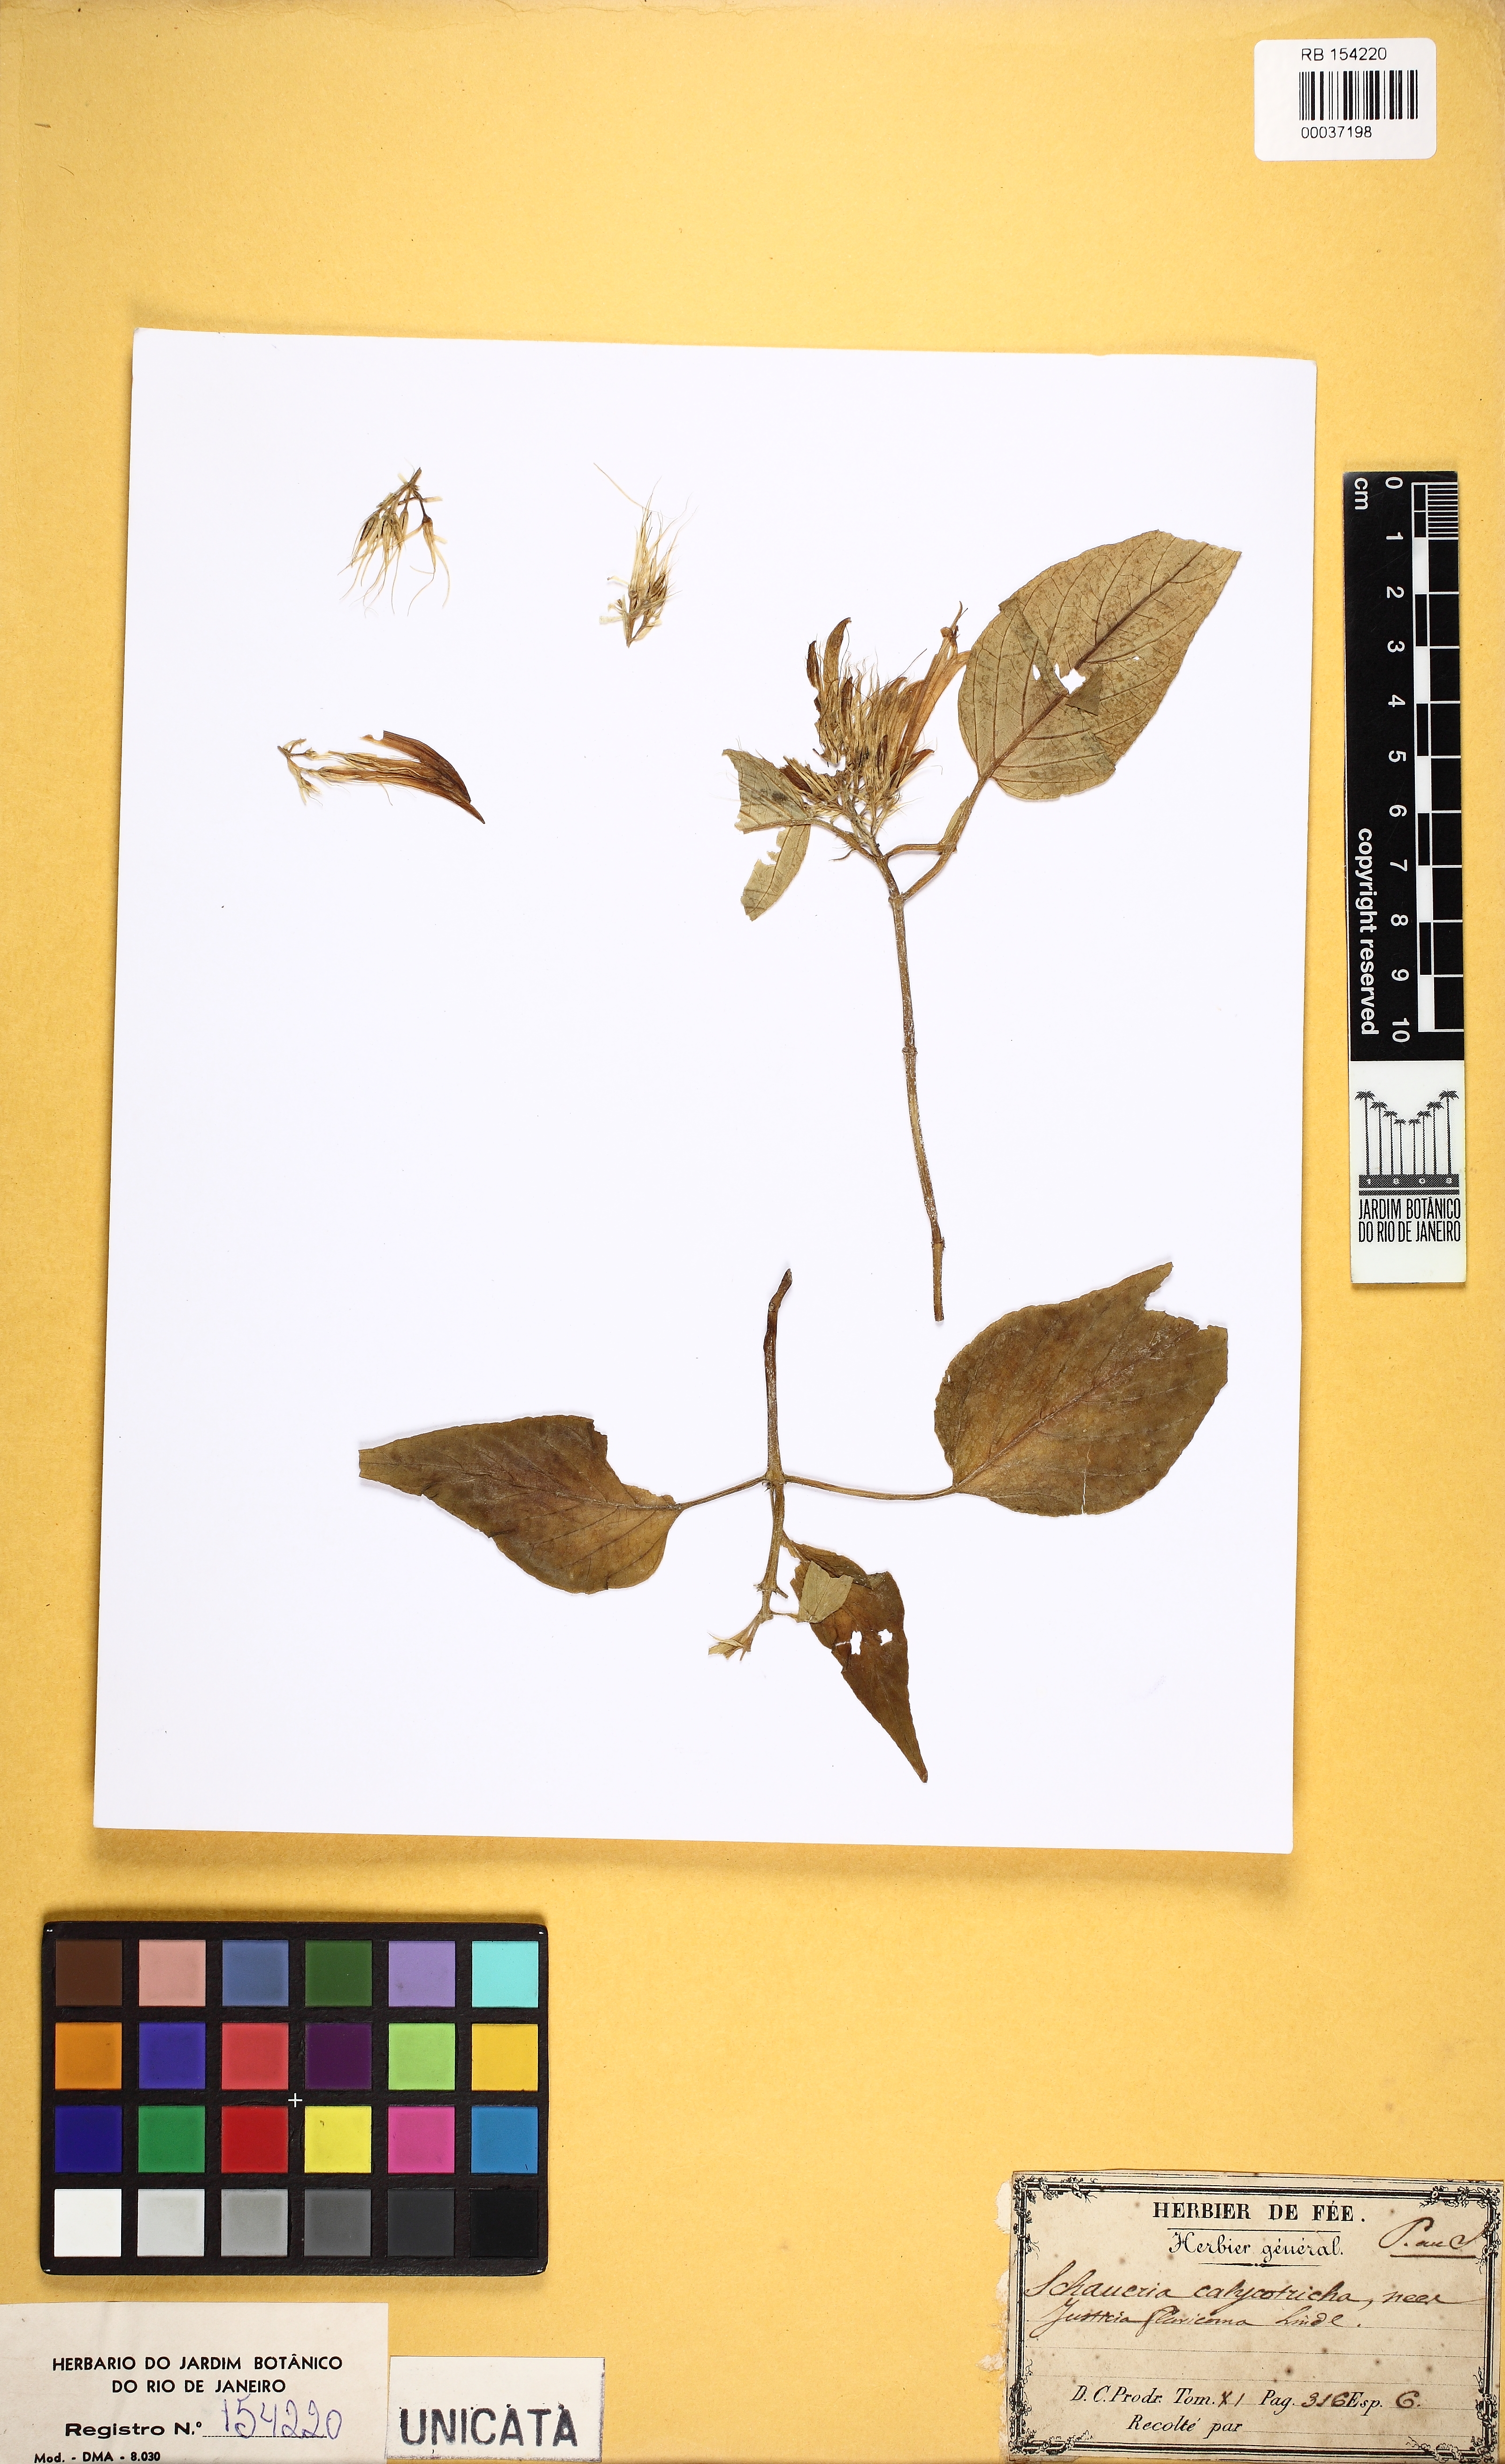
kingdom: Plantae
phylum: Tracheophyta
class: Magnoliopsida
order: Lamiales
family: Acanthaceae
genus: Schaueria
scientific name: Schaueria calytricha
